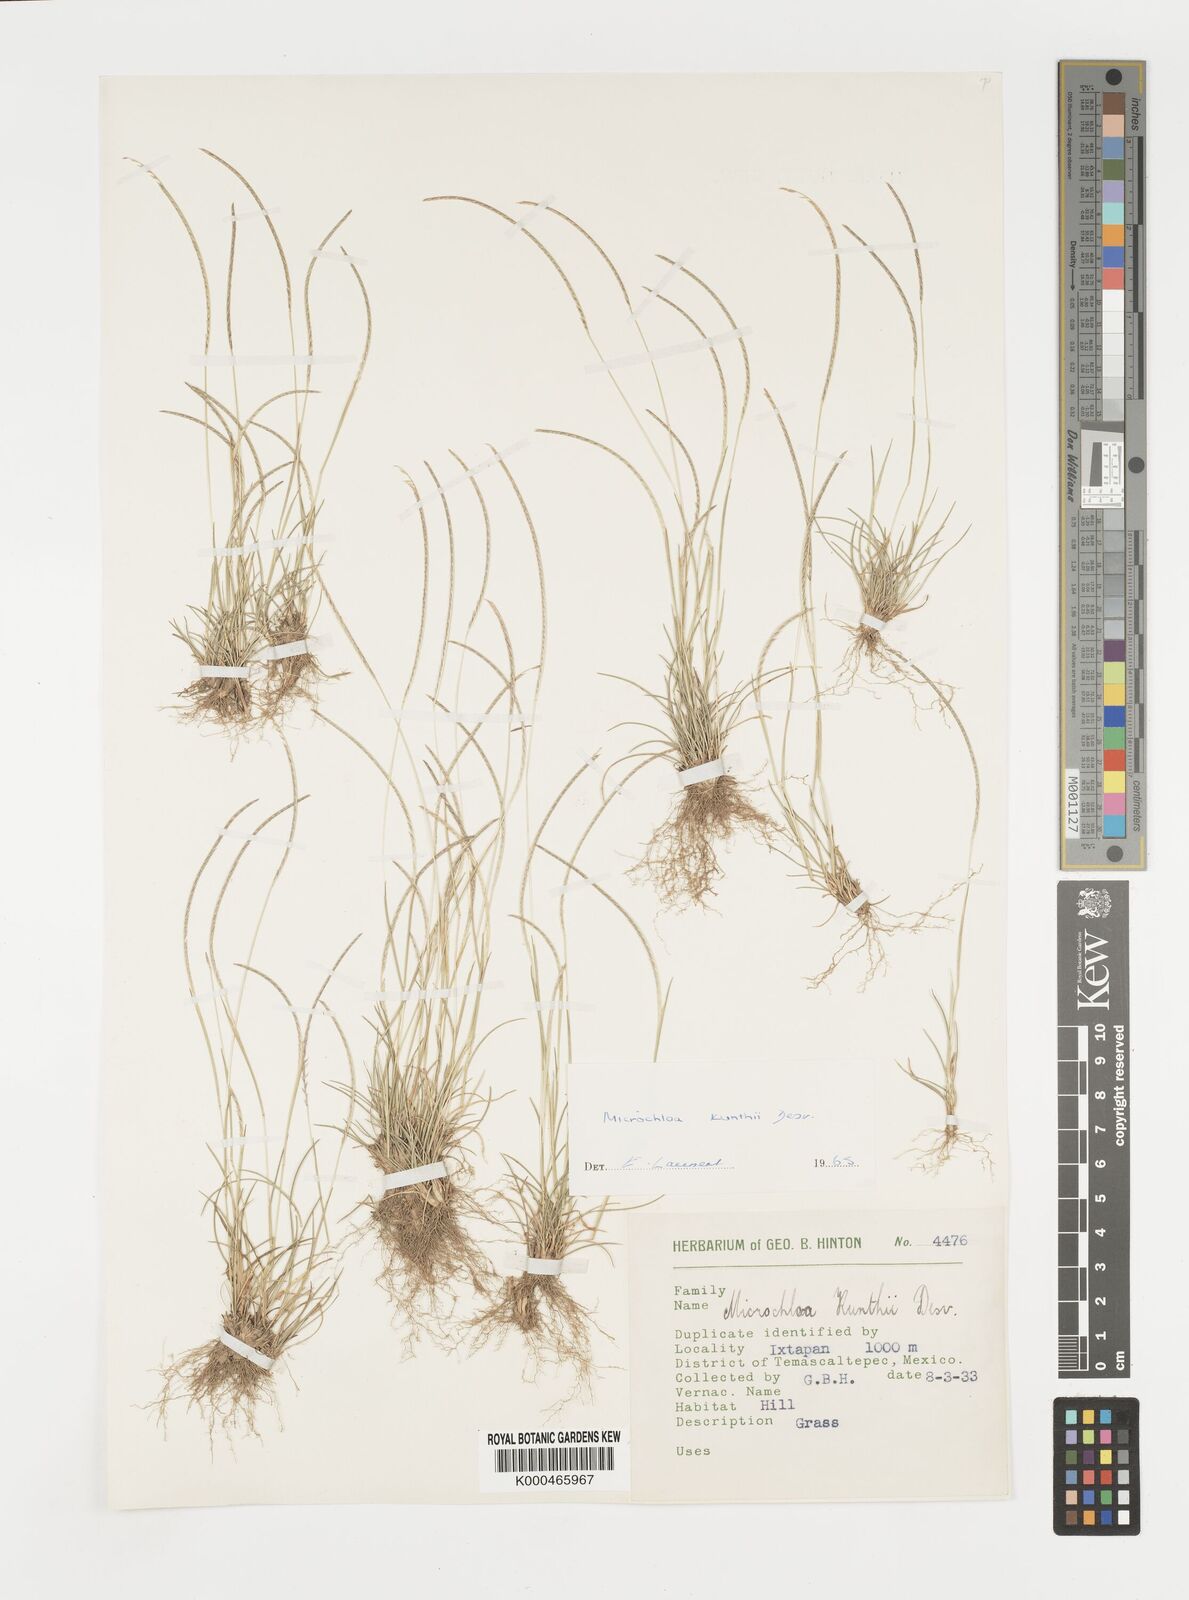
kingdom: Plantae
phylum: Tracheophyta
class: Liliopsida
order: Poales
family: Poaceae
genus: Microchloa
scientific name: Microchloa kunthii
